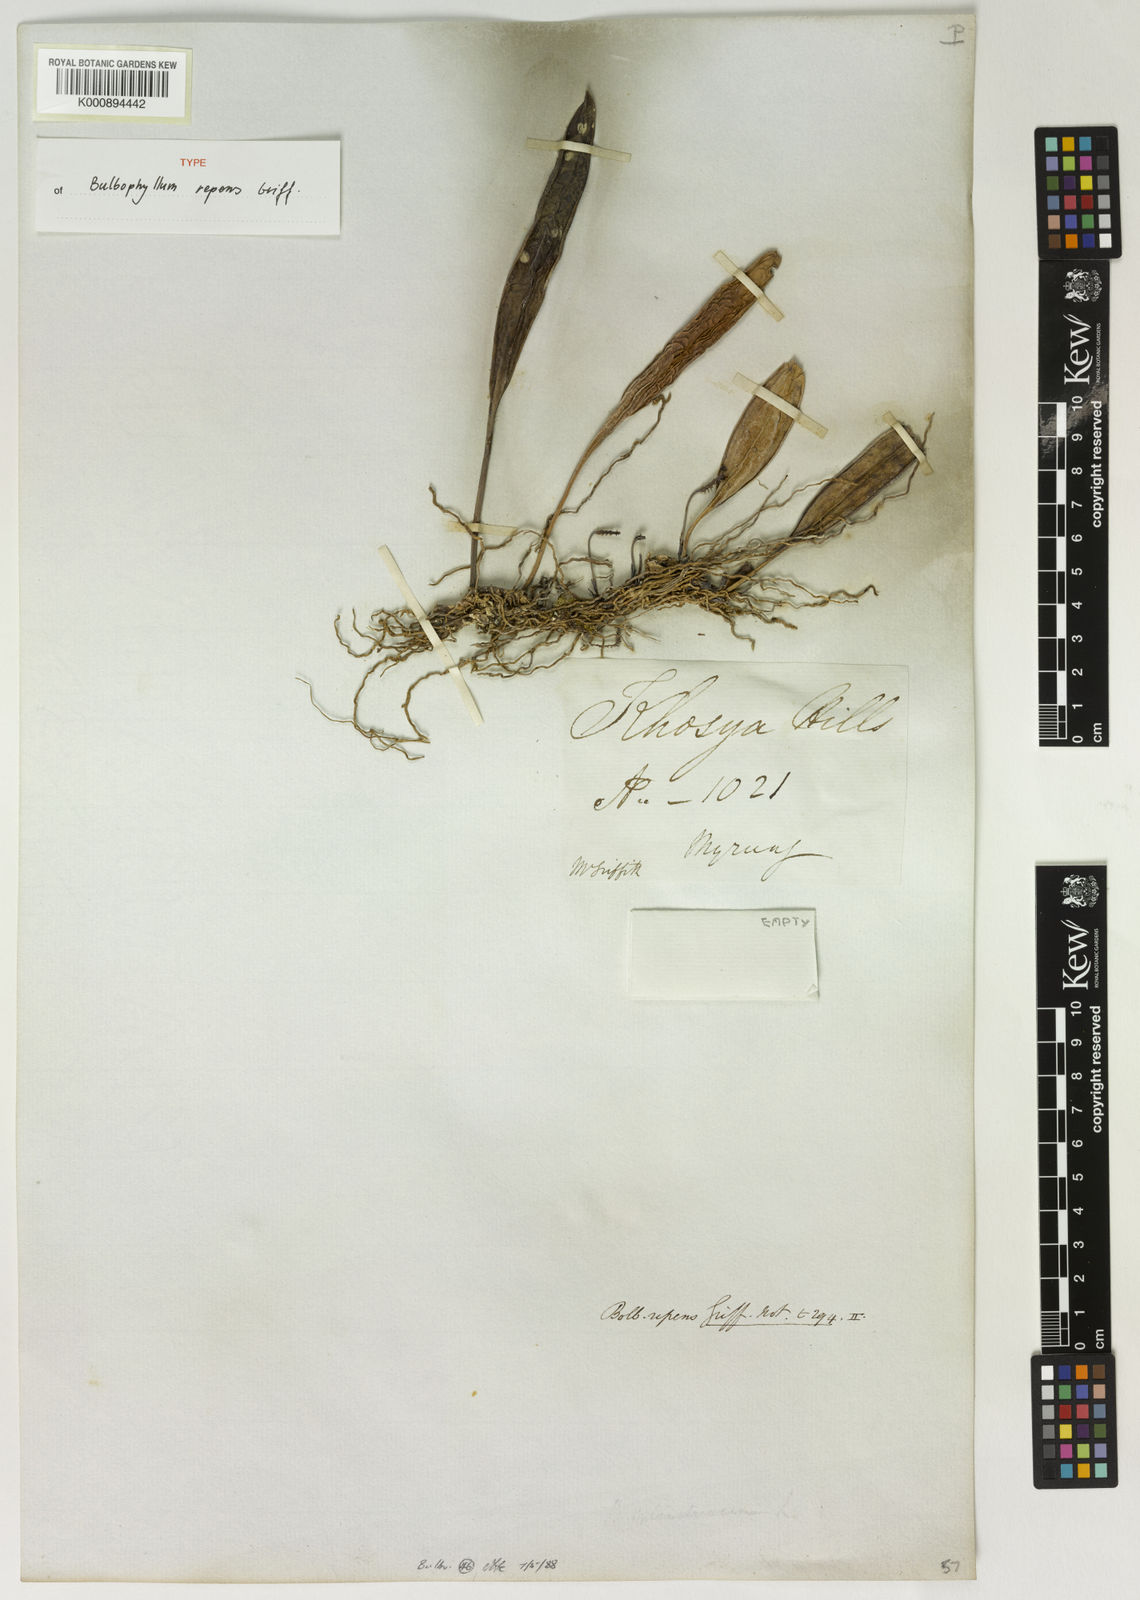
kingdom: Plantae
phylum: Tracheophyta
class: Liliopsida
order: Asparagales
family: Orchidaceae
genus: Bulbophyllum
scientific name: Bulbophyllum repens
